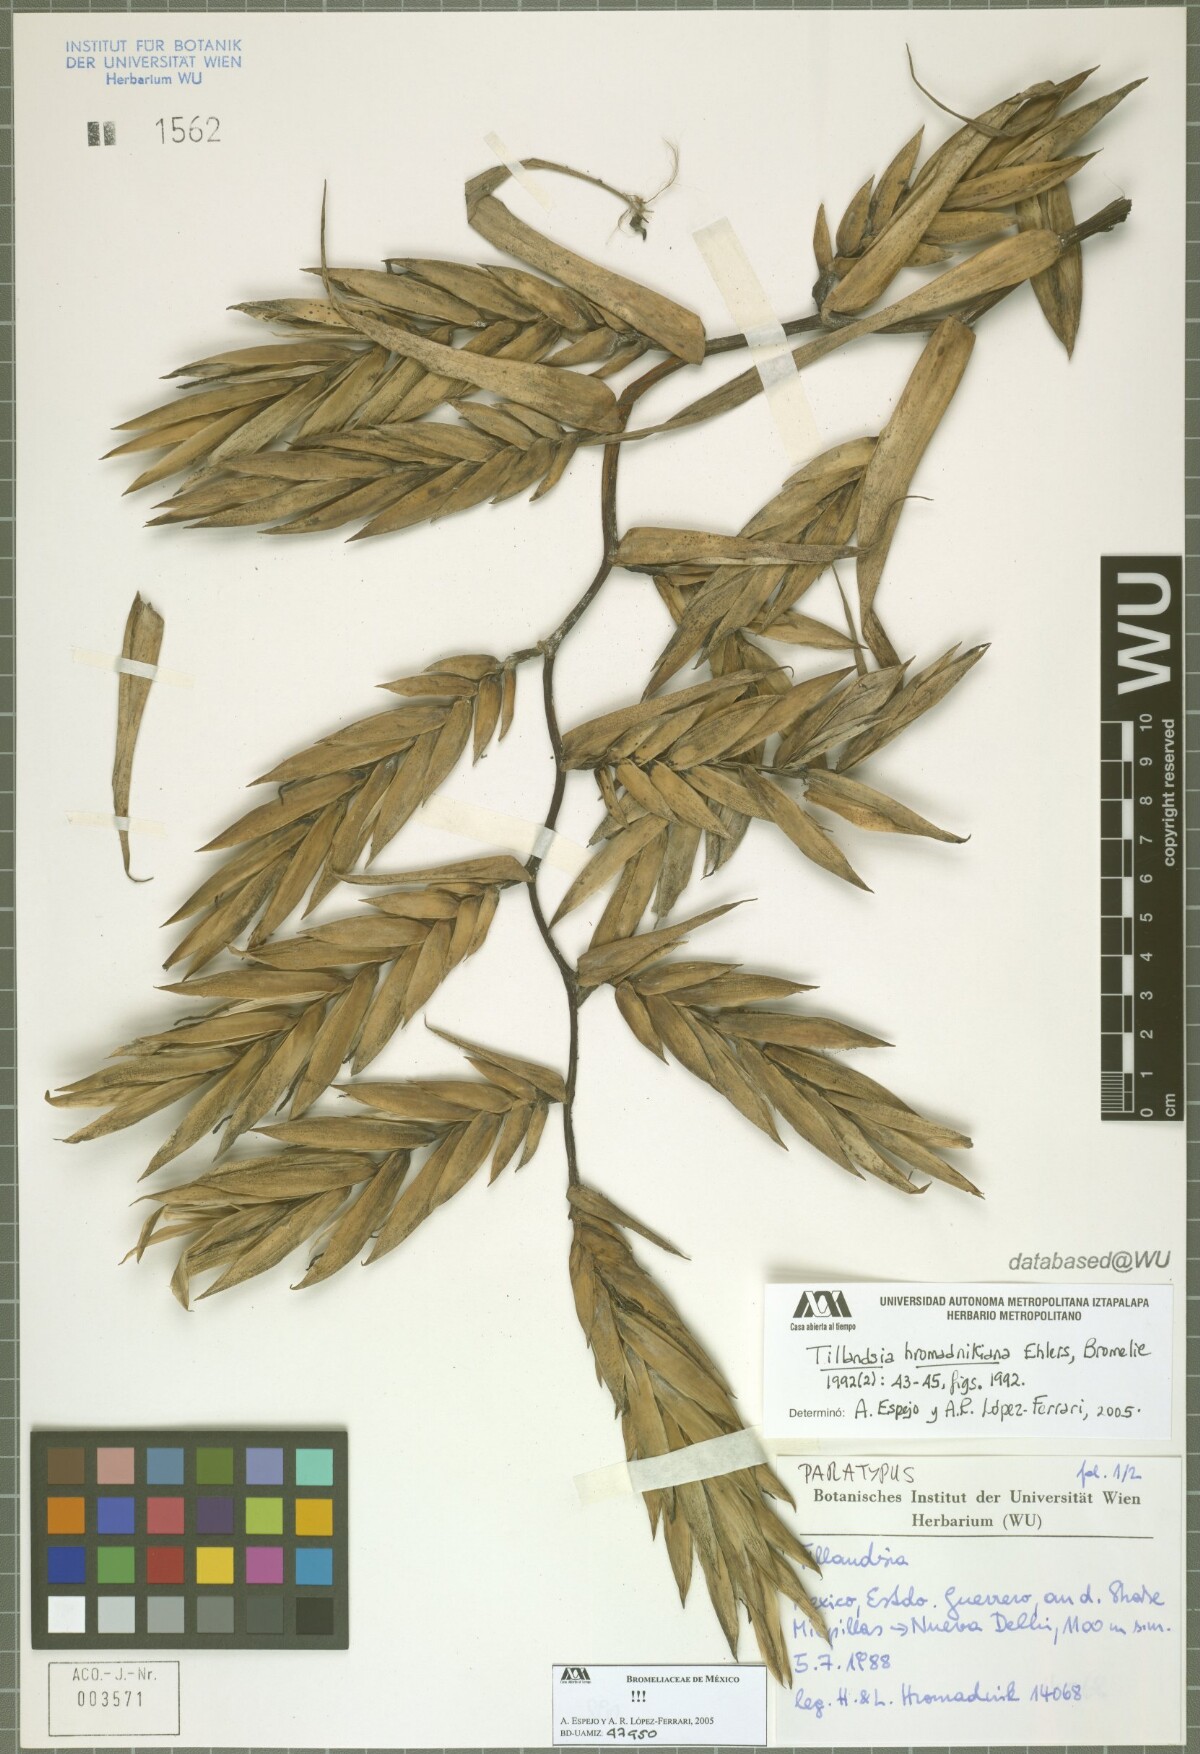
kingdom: Plantae
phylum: Tracheophyta
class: Liliopsida
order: Poales
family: Bromeliaceae
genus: Tillandsia
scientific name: Tillandsia prodigiosa
